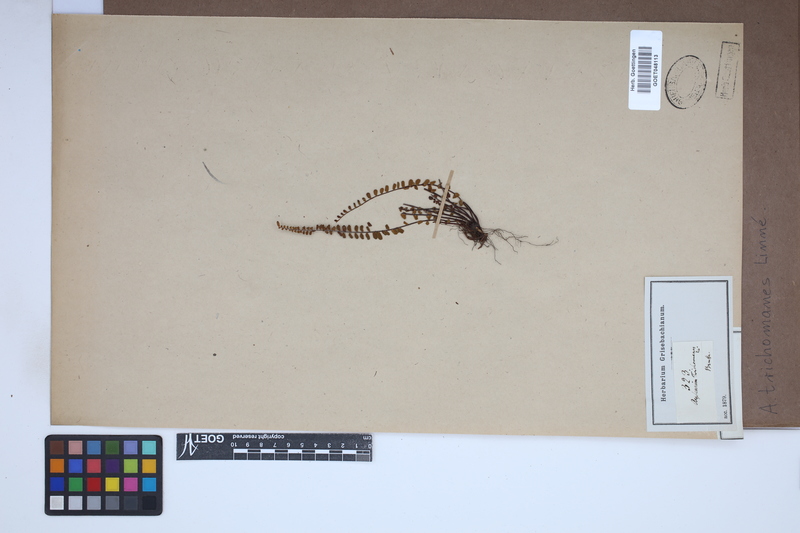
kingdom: Plantae
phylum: Tracheophyta
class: Polypodiopsida
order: Polypodiales
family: Aspleniaceae
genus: Asplenium
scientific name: Asplenium trichomanes
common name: Maidenhair spleenwort
